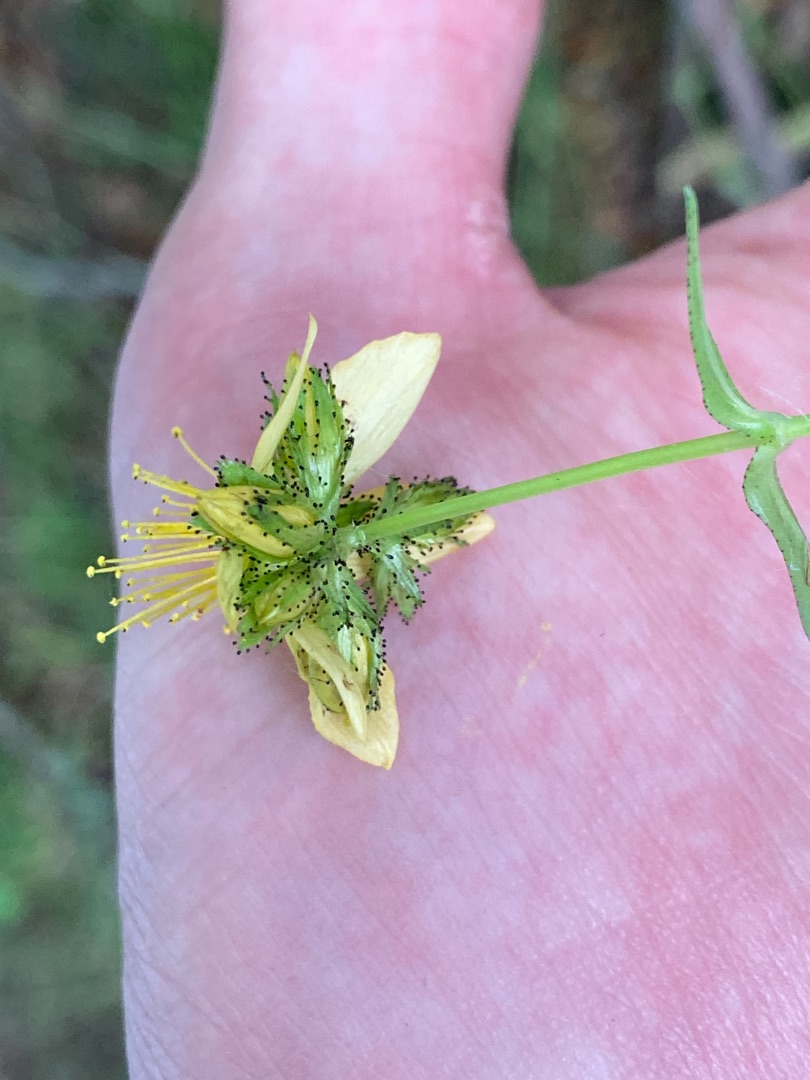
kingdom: Plantae
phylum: Tracheophyta
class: Magnoliopsida
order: Malpighiales
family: Hypericaceae
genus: Hypericum
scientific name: Hypericum montanum
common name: Bjerg-perikon
